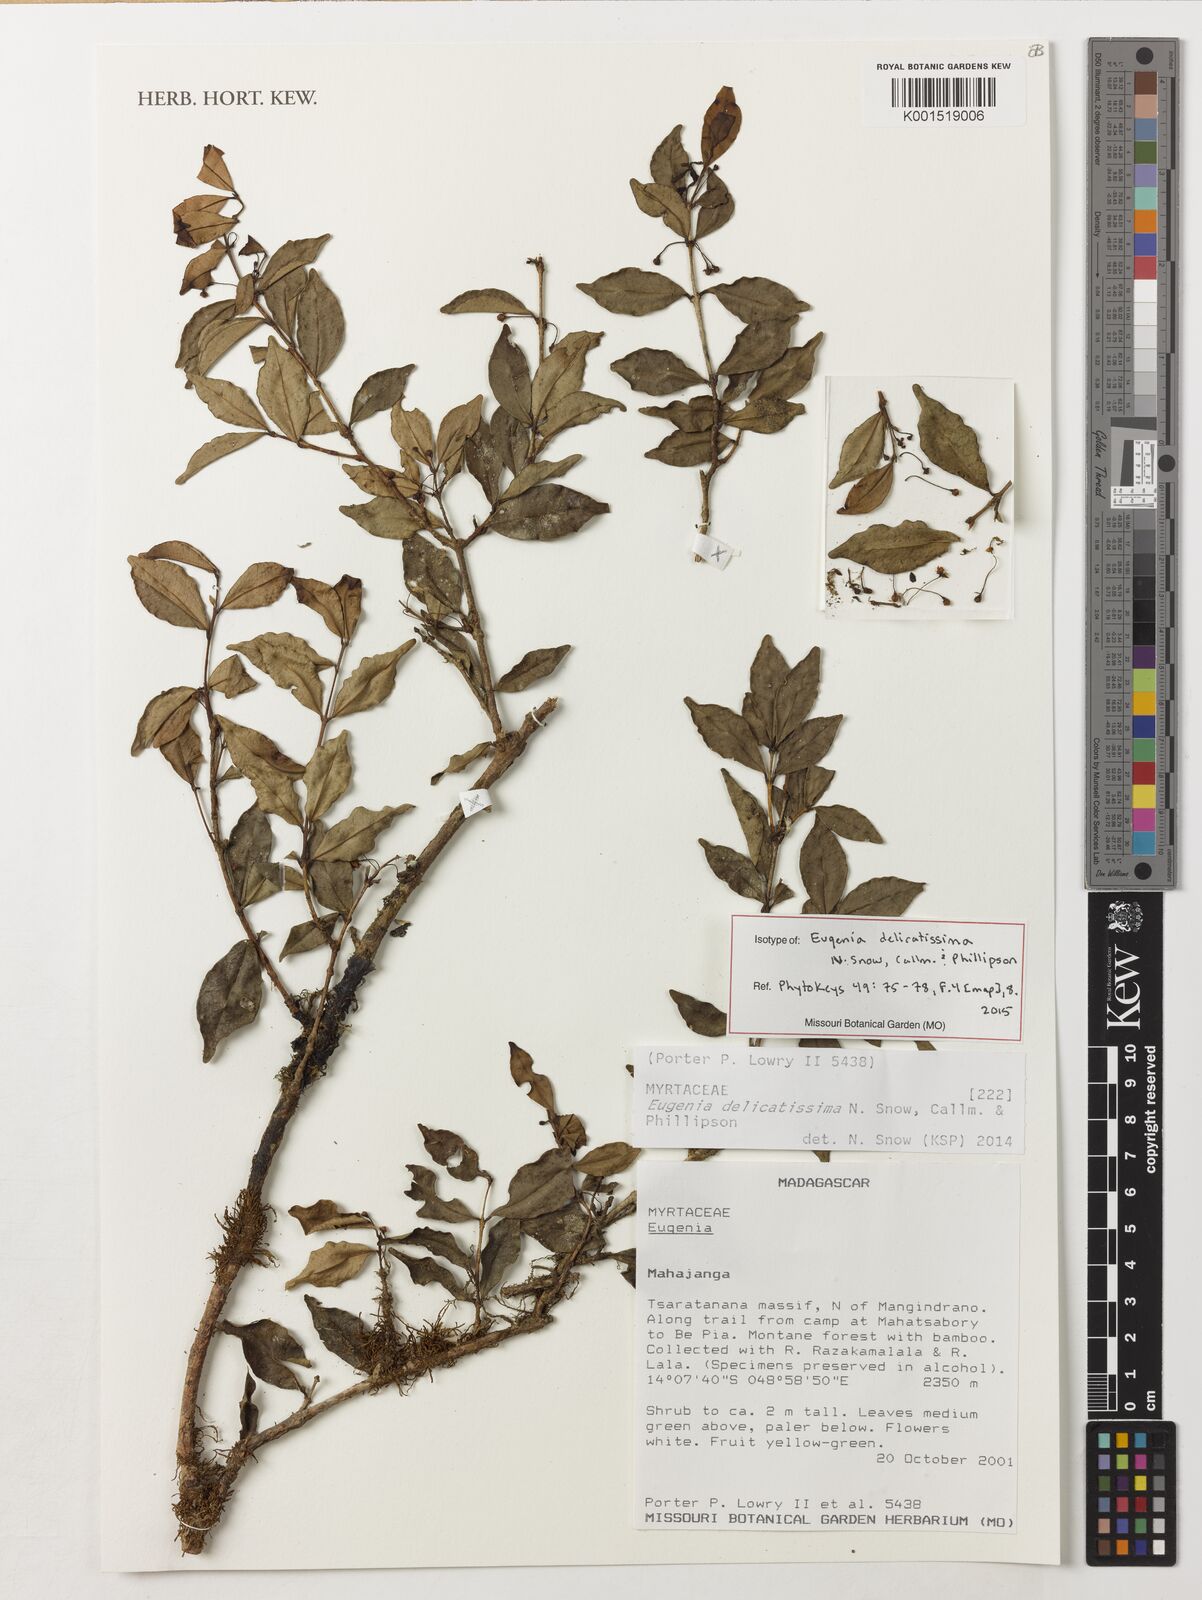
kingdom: Plantae
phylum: Tracheophyta
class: Magnoliopsida
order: Myrtales
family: Myrtaceae
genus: Eugenia
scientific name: Eugenia delicatissima
